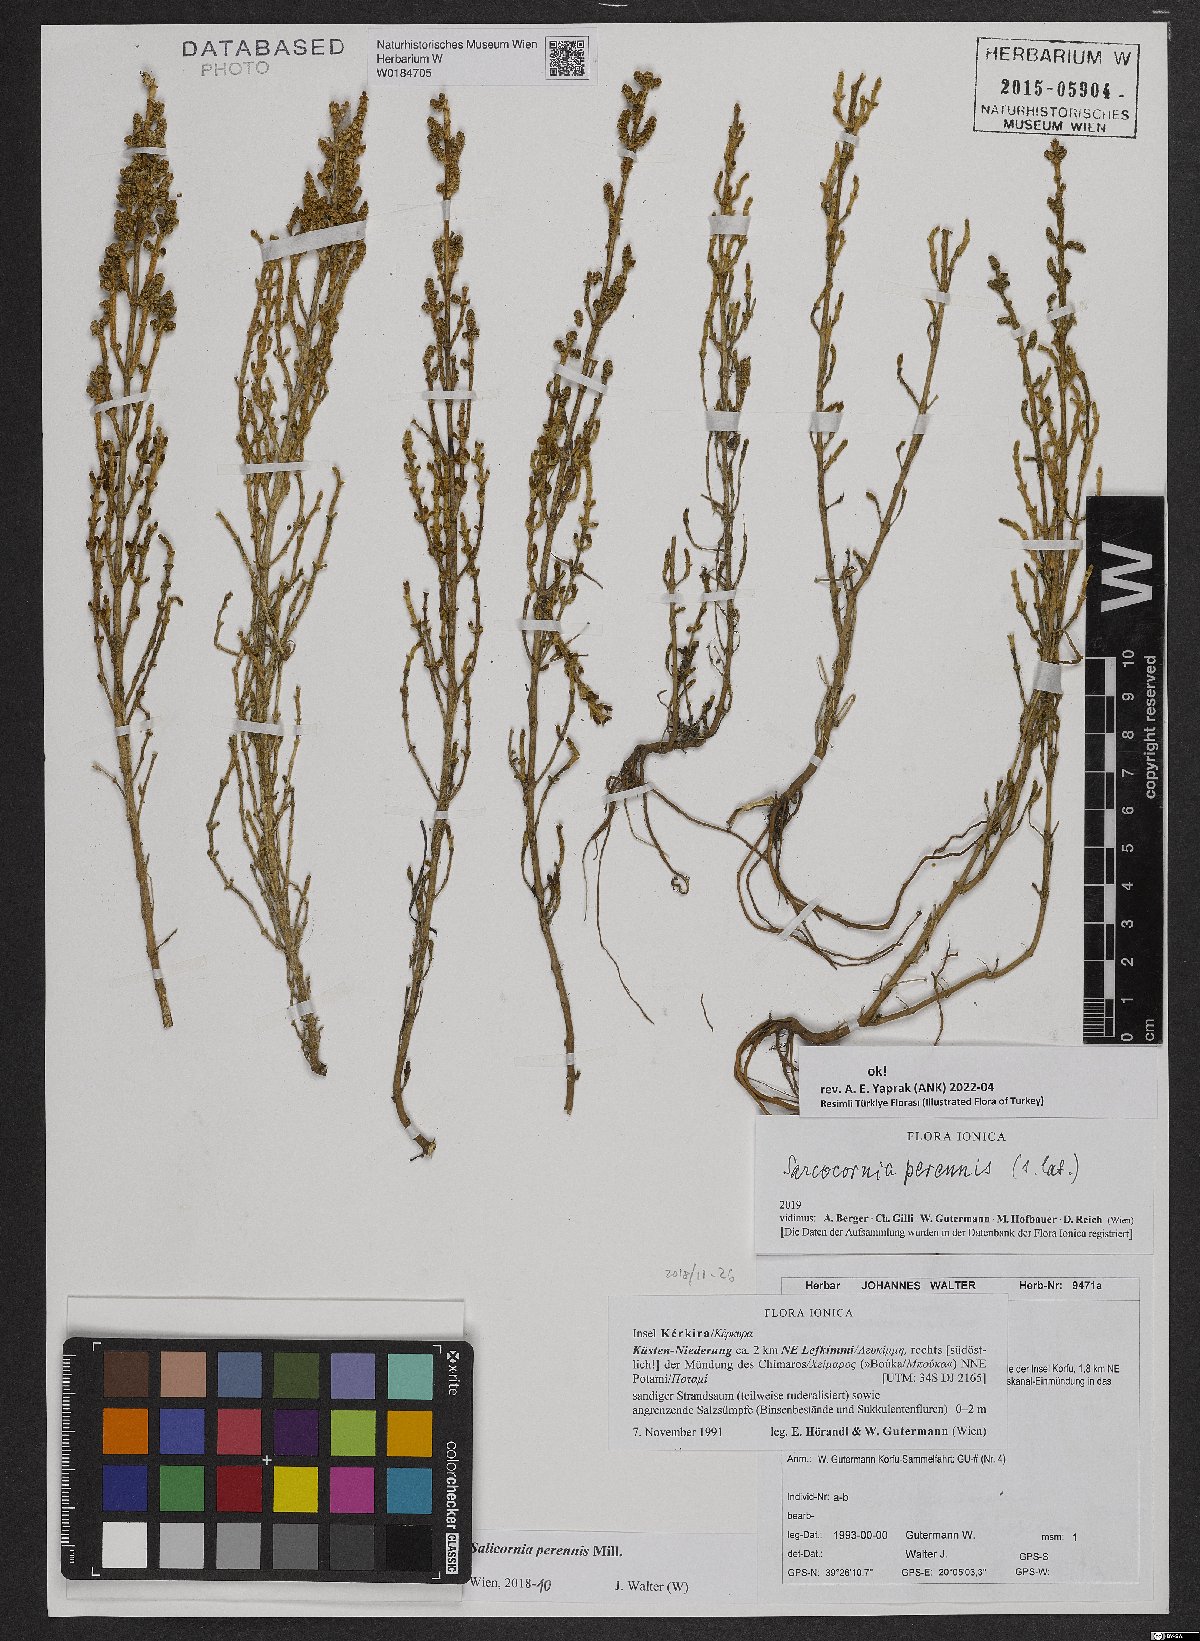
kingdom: Plantae
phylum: Tracheophyta
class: Magnoliopsida
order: Caryophyllales
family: Amaranthaceae
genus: Salicornia
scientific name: Salicornia obclavata
